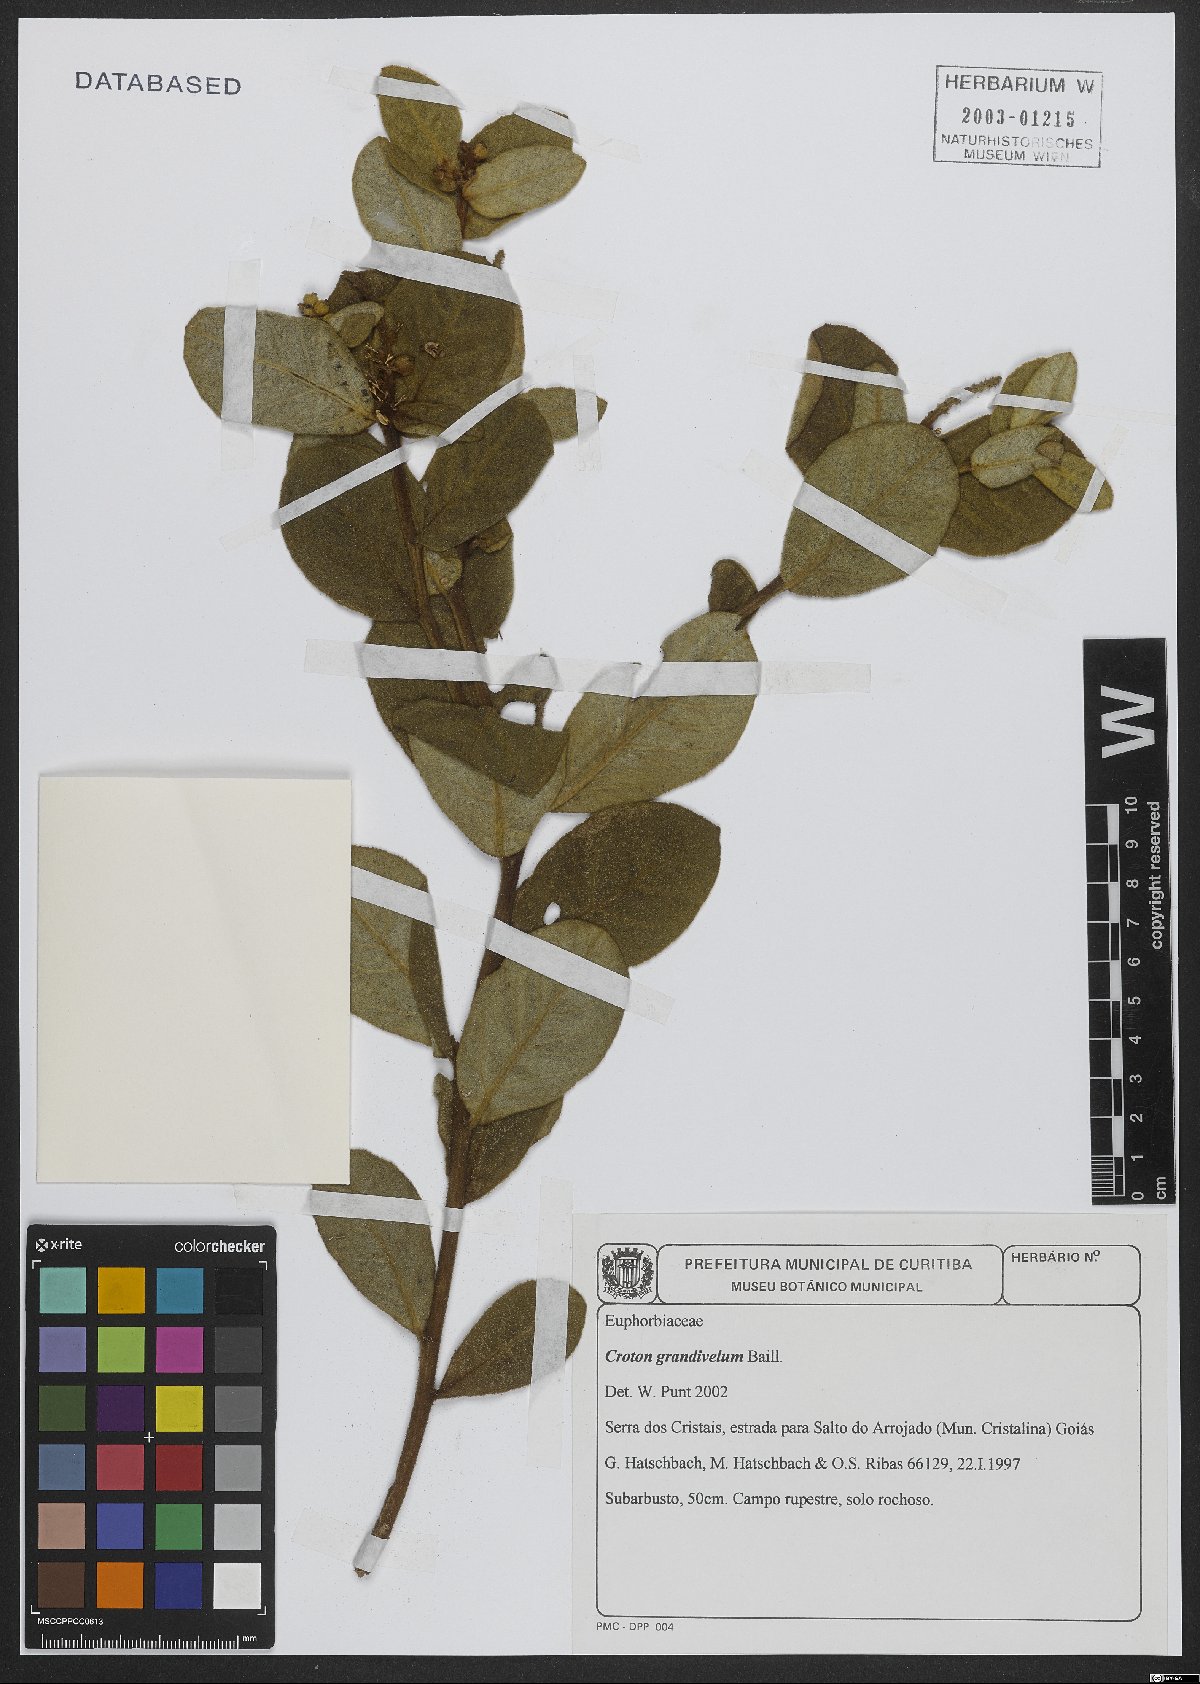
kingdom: Plantae
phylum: Tracheophyta
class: Magnoliopsida
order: Malpighiales
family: Euphorbiaceae
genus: Croton
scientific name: Croton grandivelum
